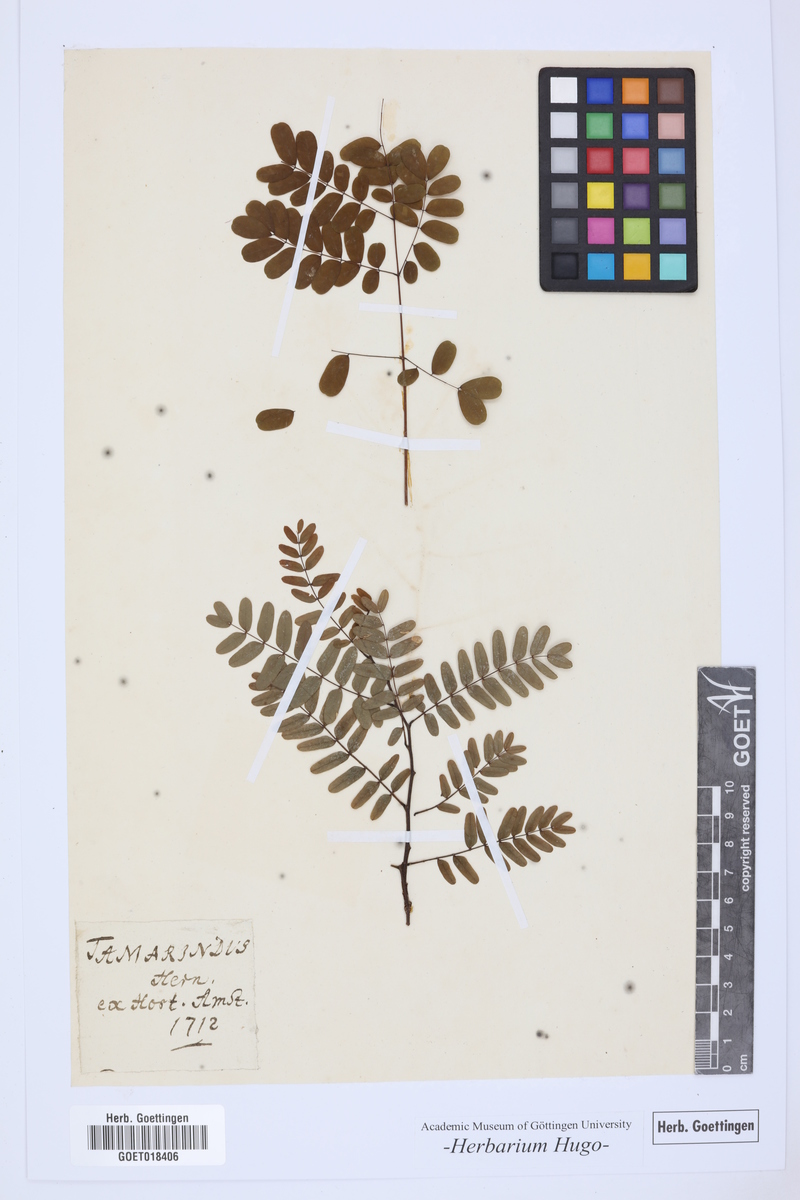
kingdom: Plantae
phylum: Tracheophyta
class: Magnoliopsida
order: Fabales
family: Fabaceae
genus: Tamarindus
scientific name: Tamarindus indica
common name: Tamarind
